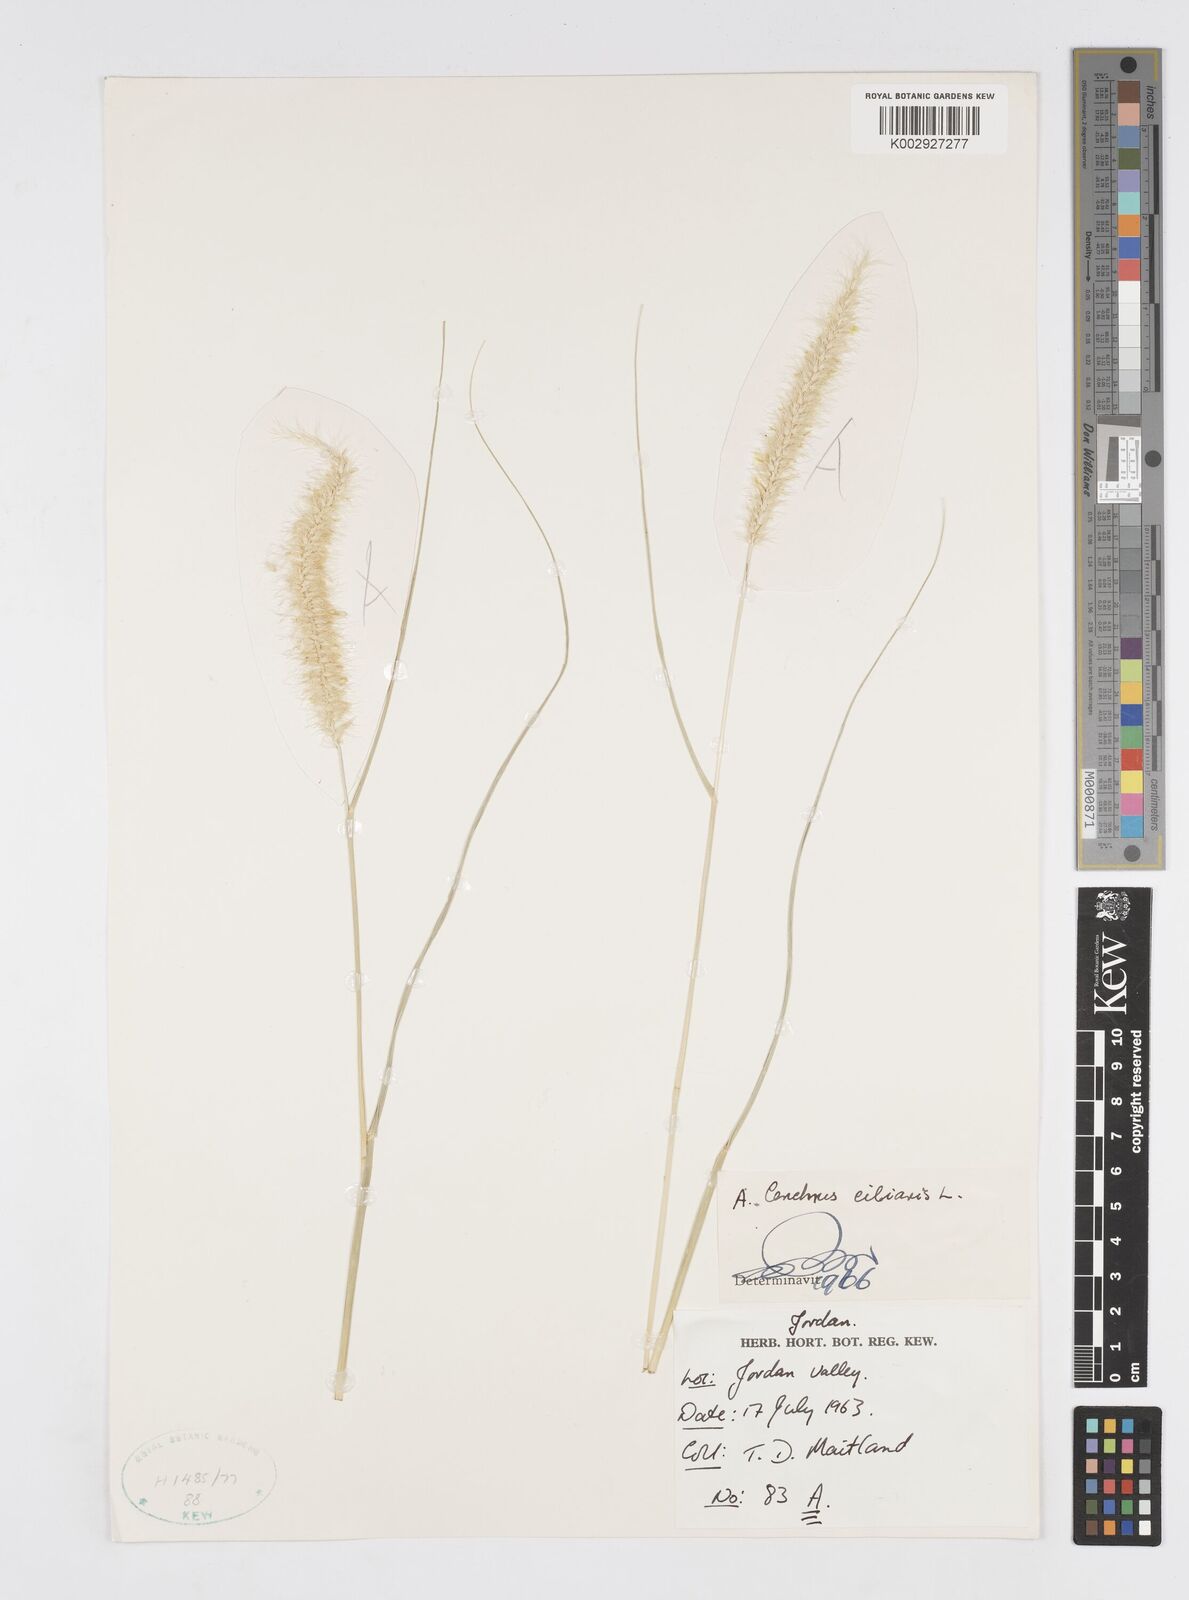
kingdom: Plantae
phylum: Tracheophyta
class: Liliopsida
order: Poales
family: Poaceae
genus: Cenchrus
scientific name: Cenchrus ciliaris
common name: Buffelgrass
